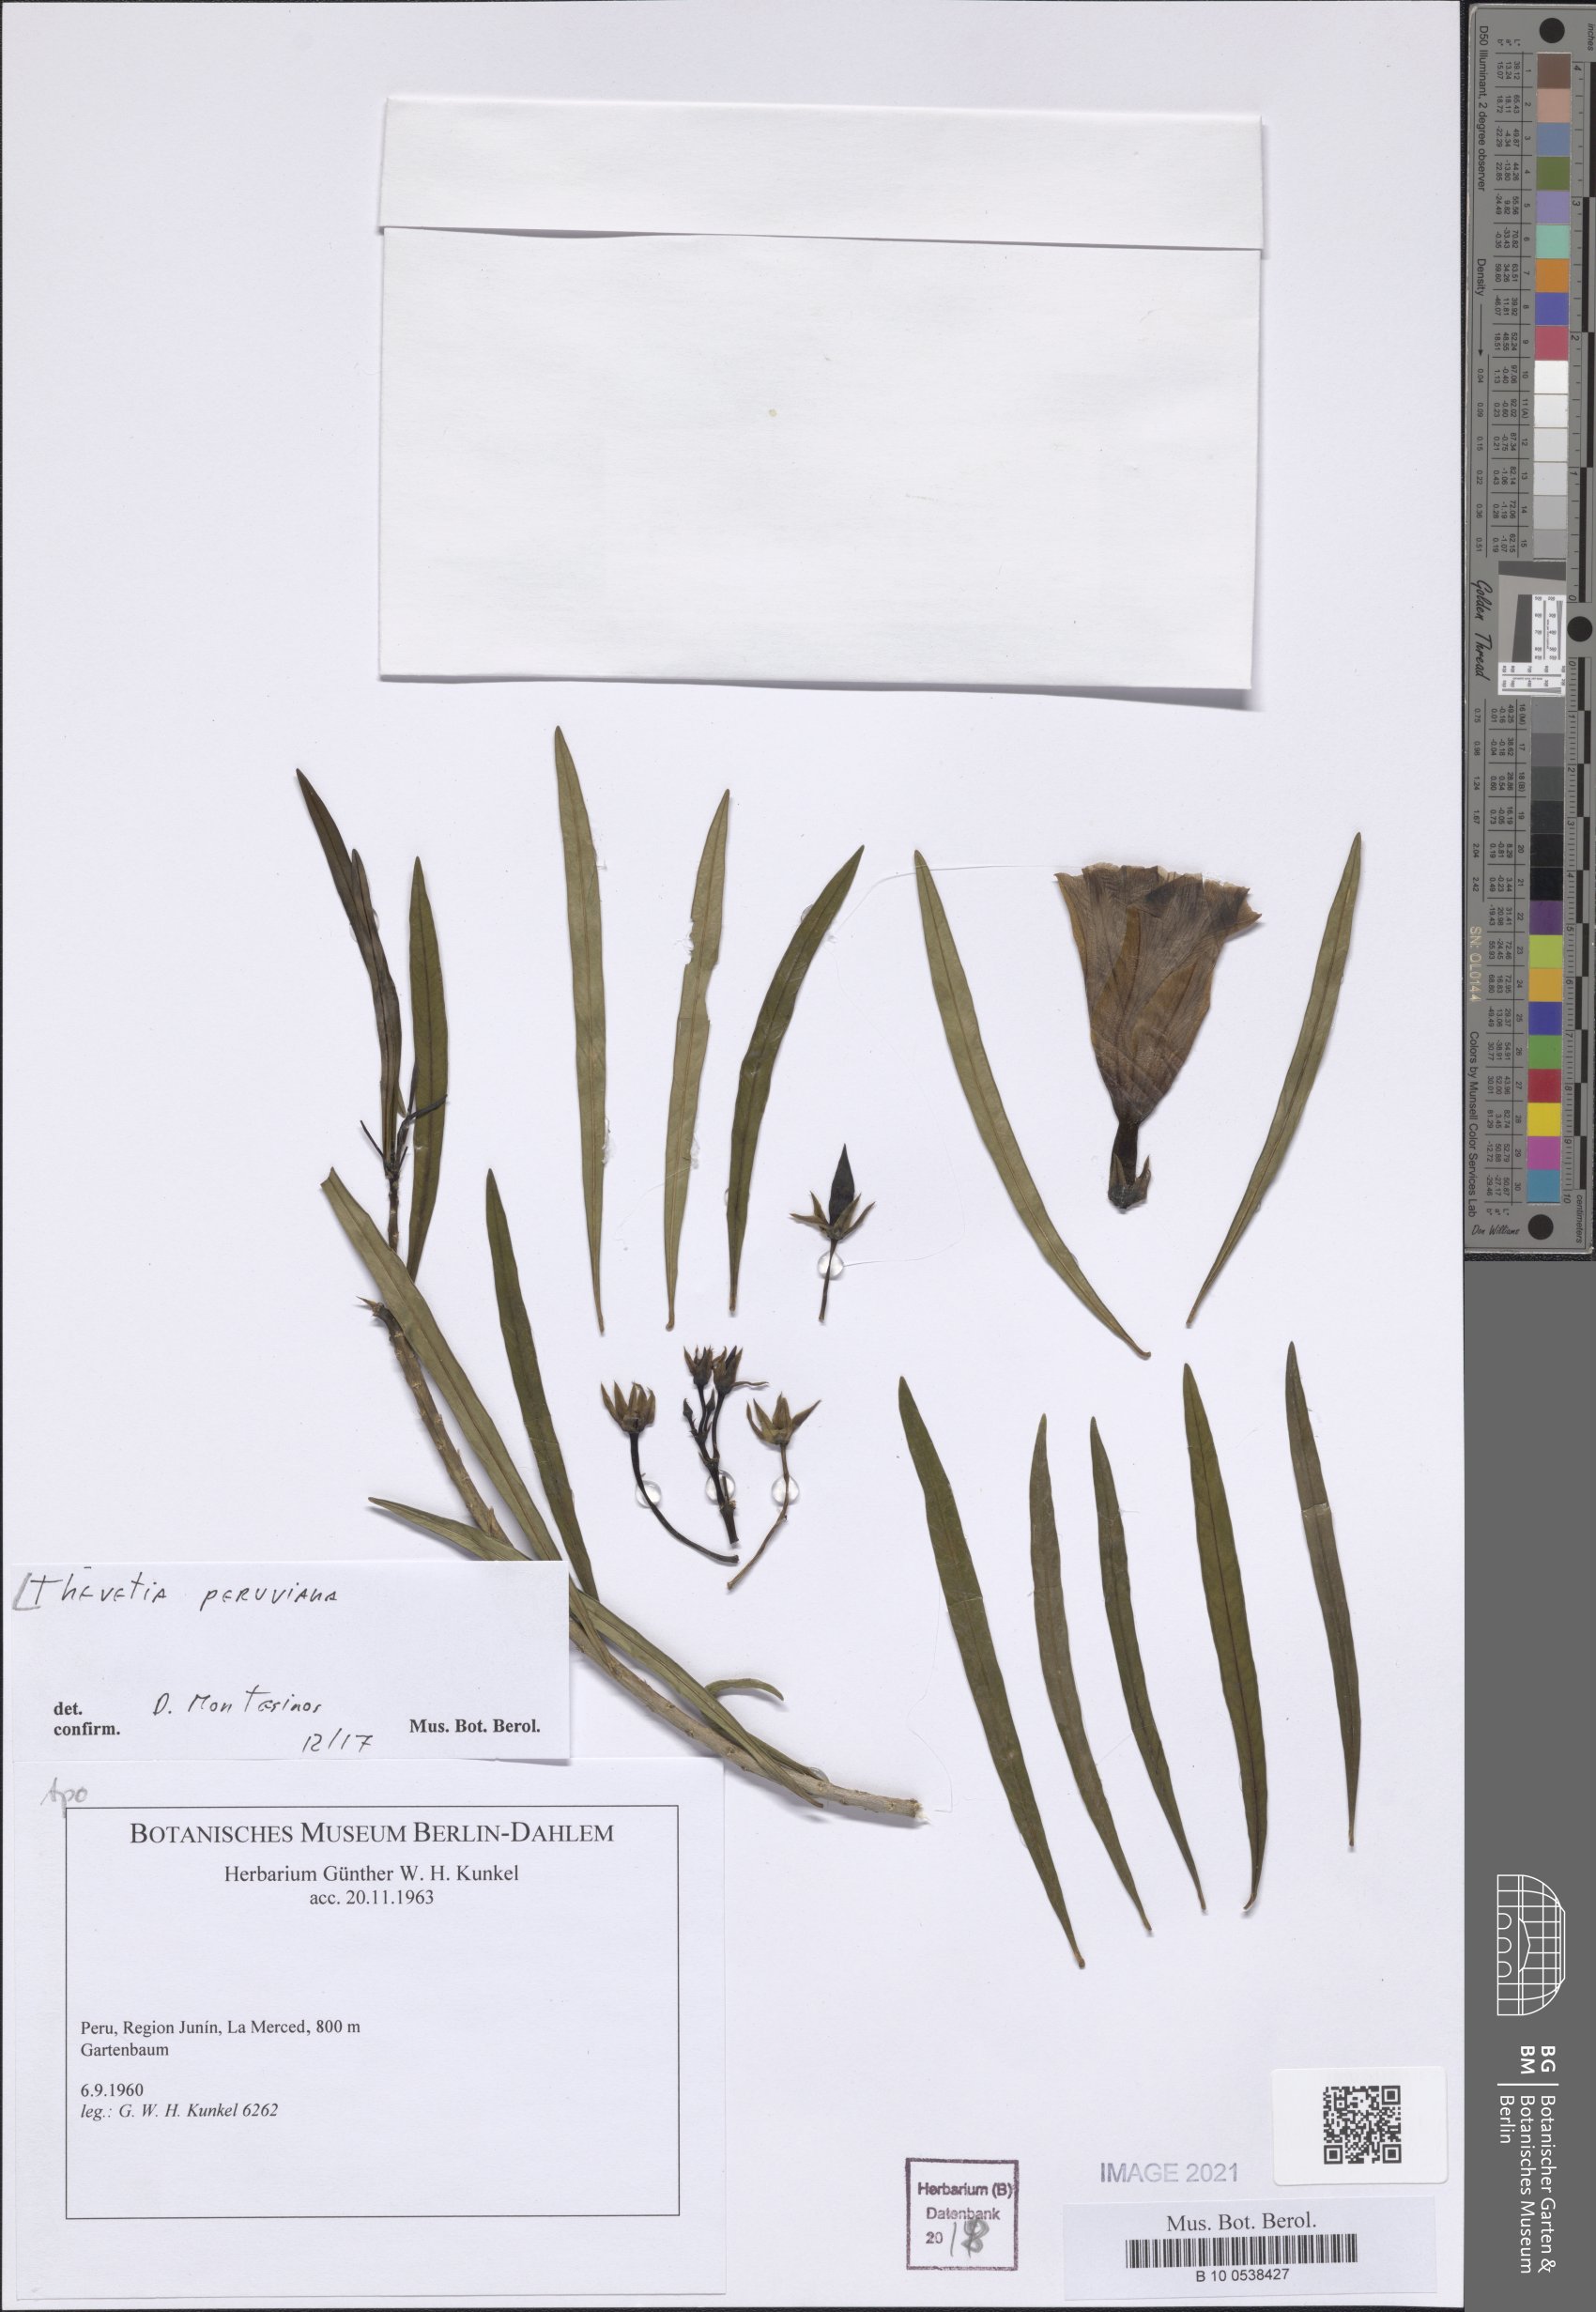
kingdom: Plantae
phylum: Tracheophyta
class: Magnoliopsida
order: Gentianales
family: Apocynaceae
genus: Cascabela
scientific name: Cascabela thevetia
